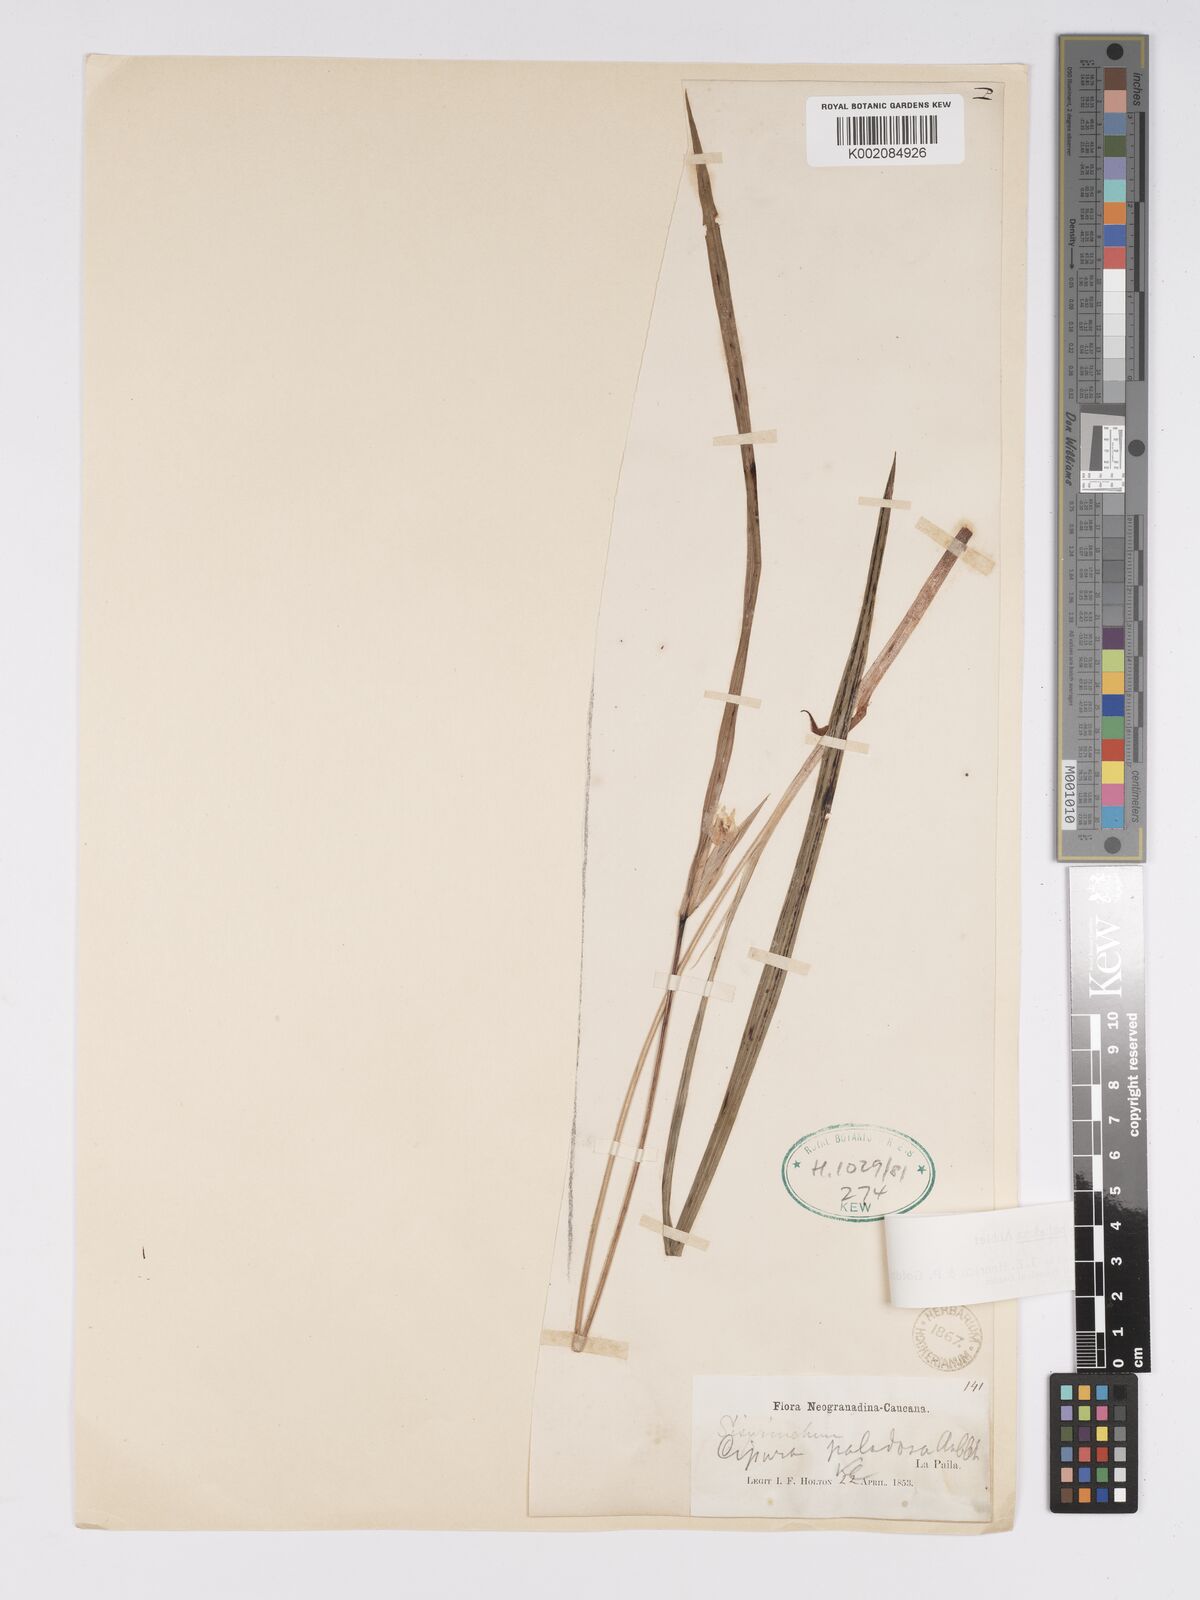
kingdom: Plantae
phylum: Tracheophyta
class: Liliopsida
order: Asparagales
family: Iridaceae
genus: Cipura
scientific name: Cipura paludosa
